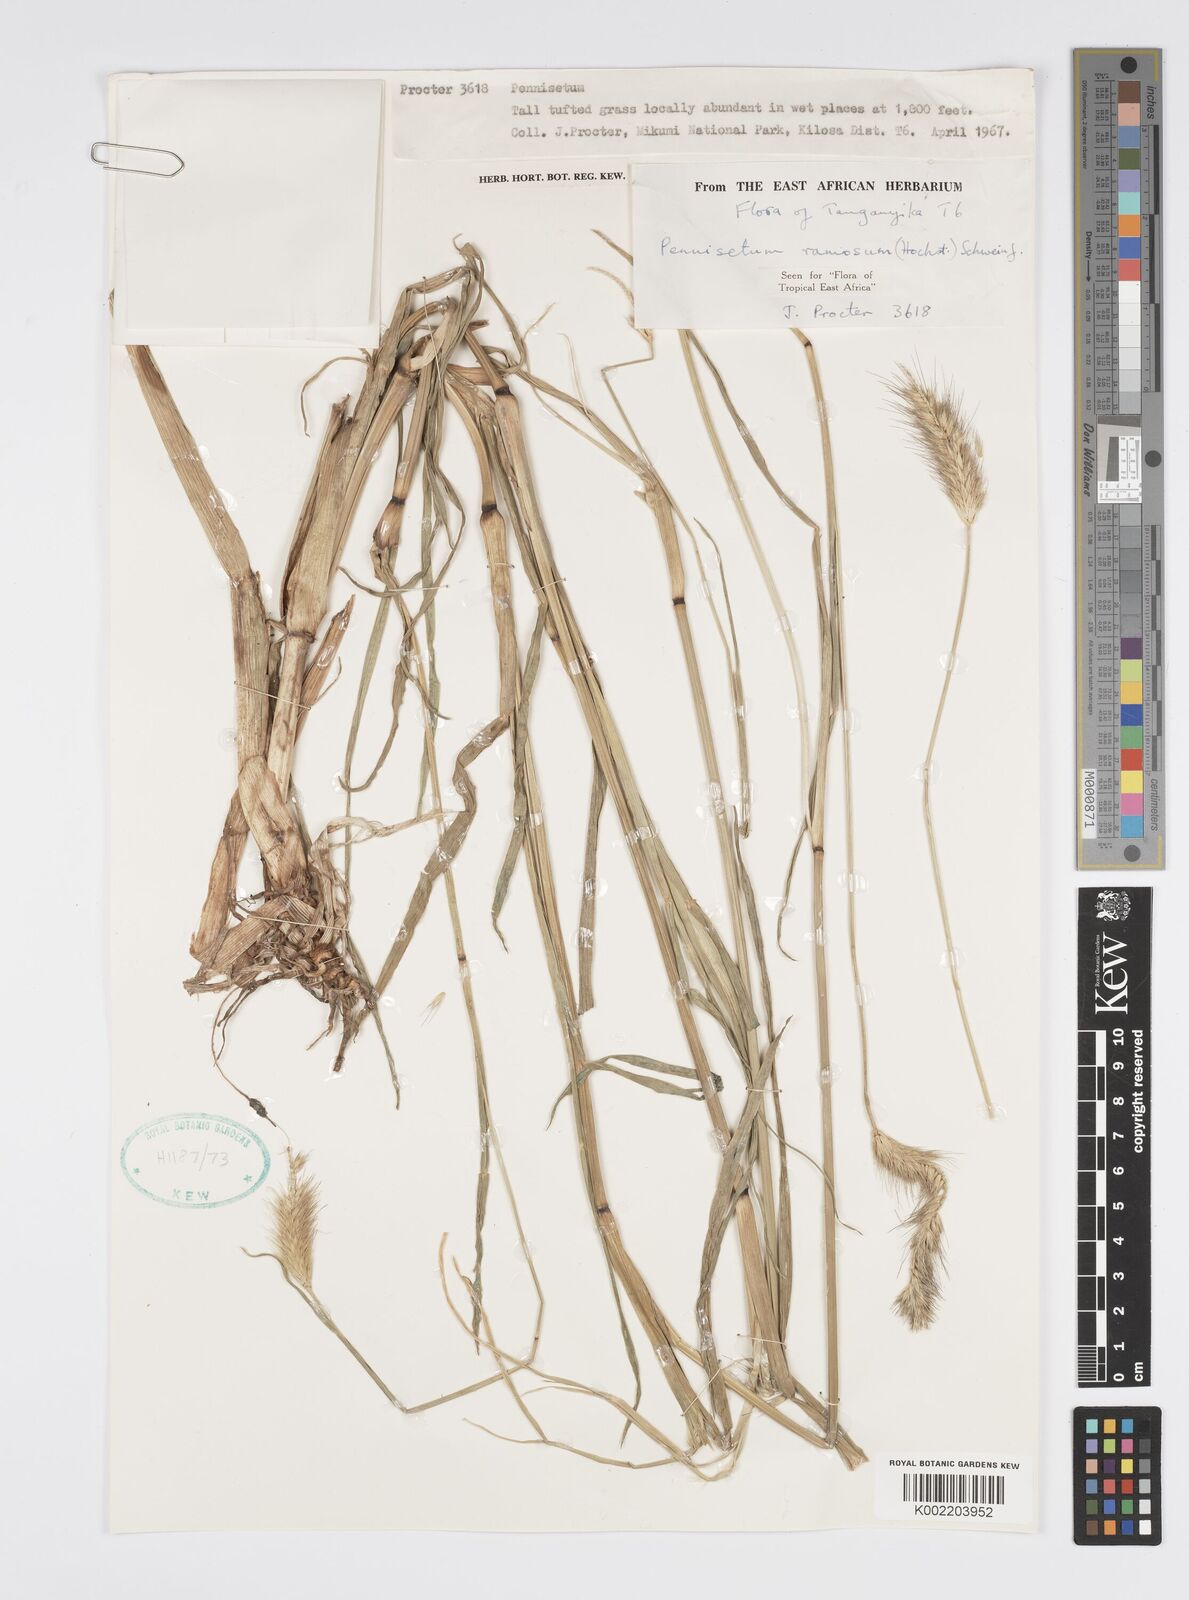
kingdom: Plantae
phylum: Tracheophyta
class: Liliopsida
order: Poales
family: Poaceae
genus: Cenchrus
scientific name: Cenchrus ramosus
